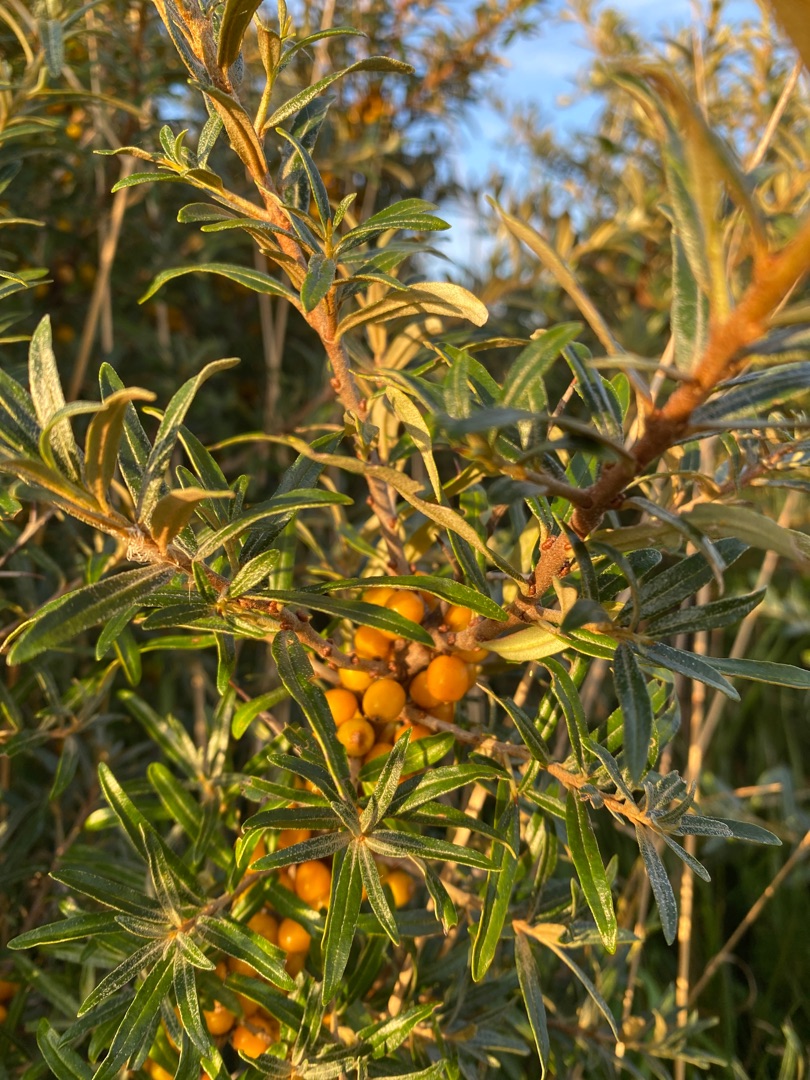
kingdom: Plantae
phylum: Tracheophyta
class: Magnoliopsida
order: Rosales
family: Elaeagnaceae
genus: Hippophae
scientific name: Hippophae rhamnoides
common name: Havtorn
